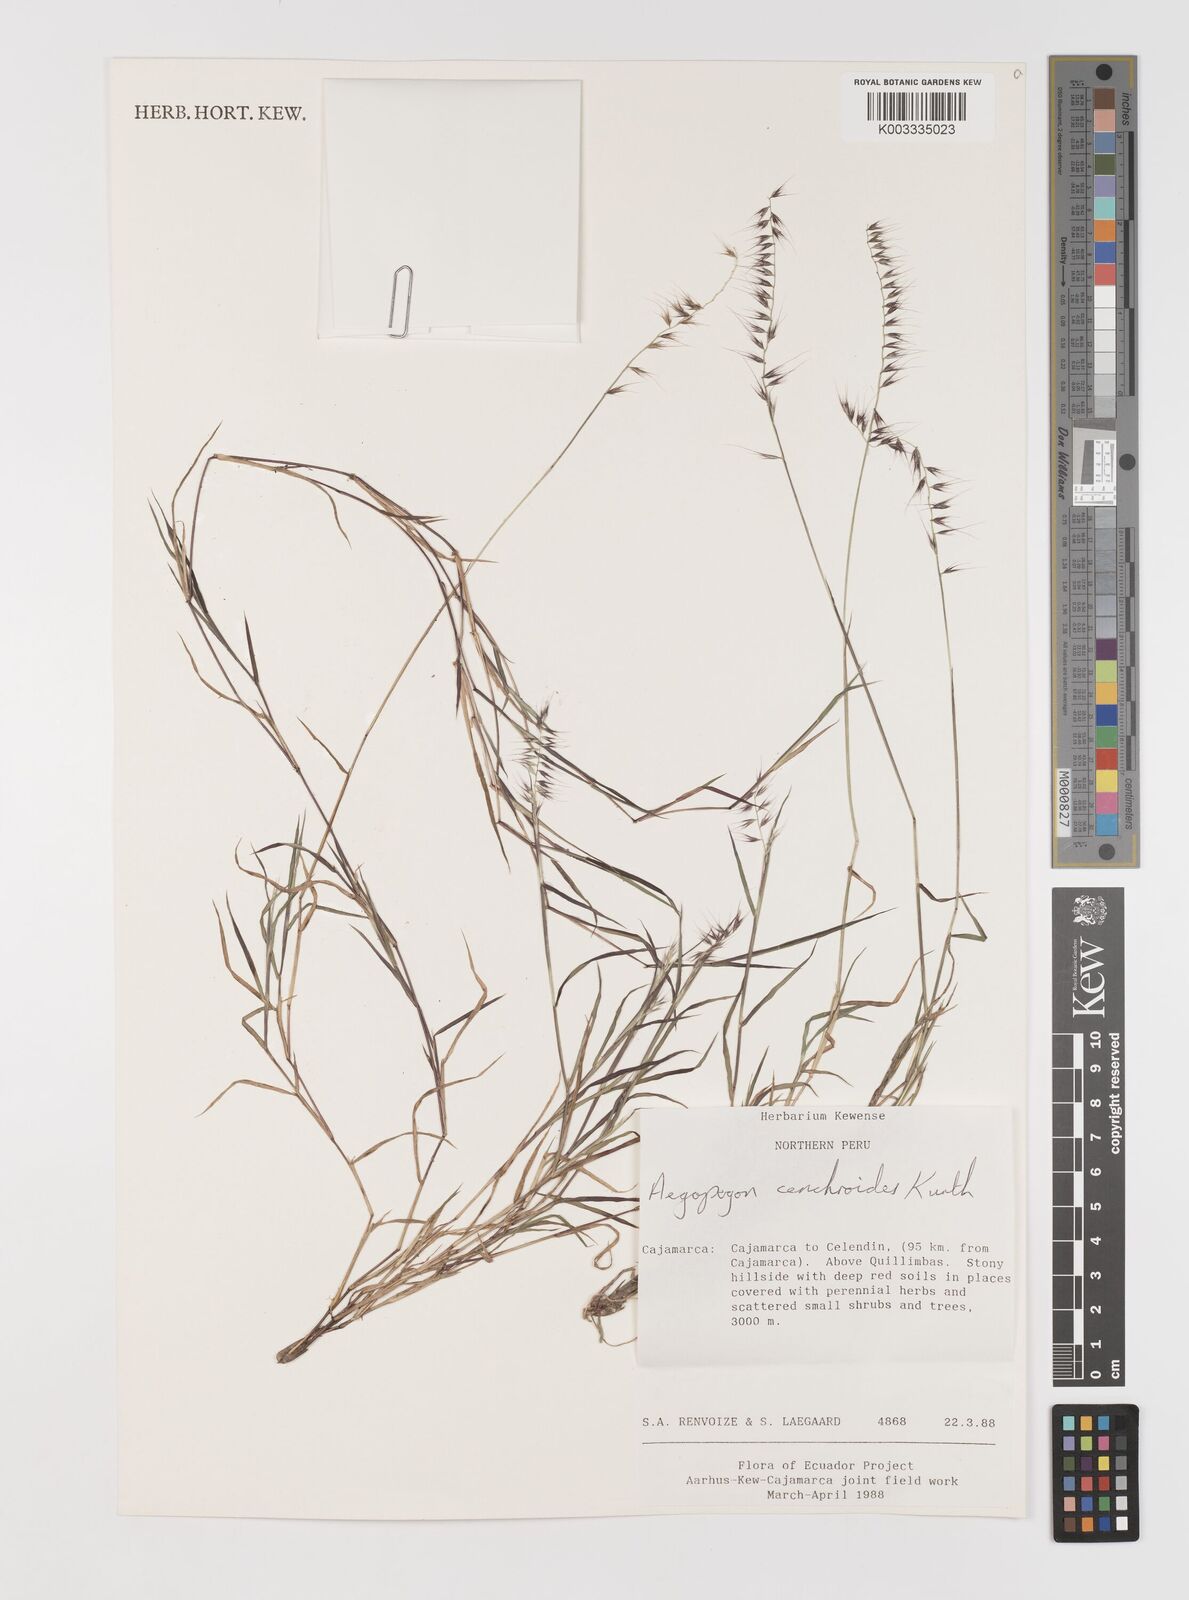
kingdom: Plantae
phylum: Tracheophyta
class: Liliopsida
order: Poales
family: Poaceae
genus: Muhlenbergia
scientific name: Muhlenbergia cenchroides
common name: Relaxgrass
